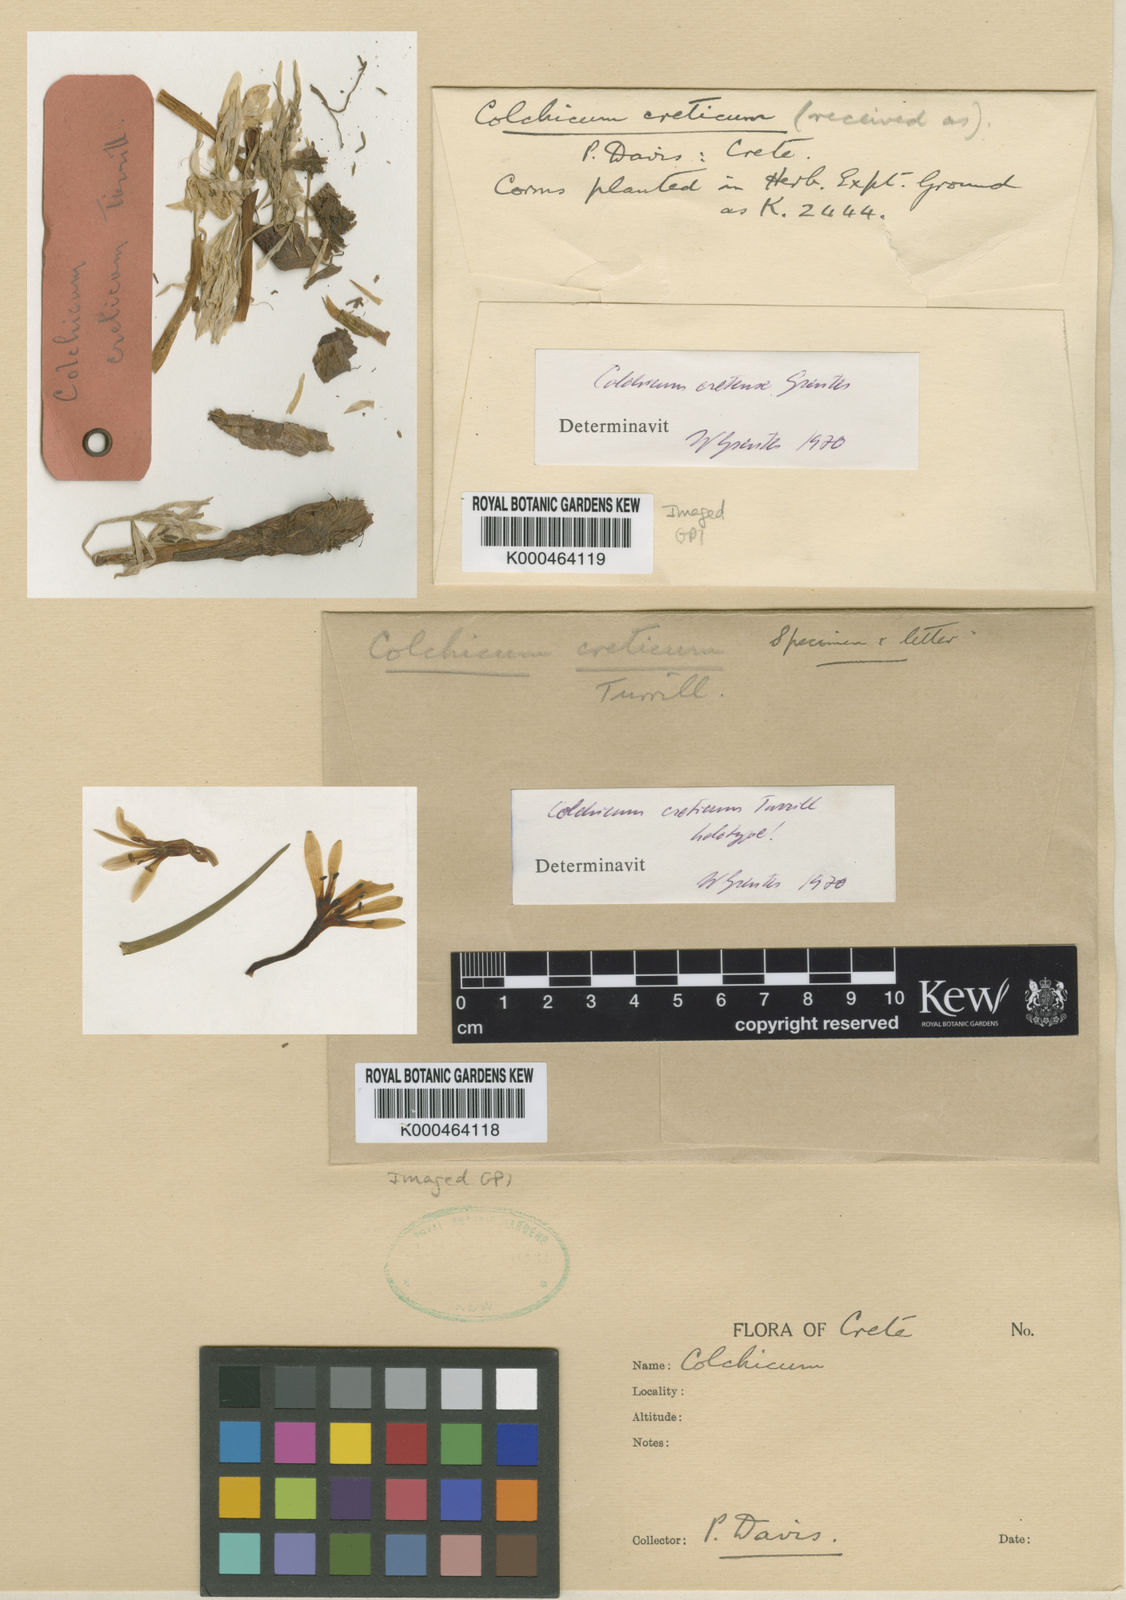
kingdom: Plantae
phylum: Tracheophyta
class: Liliopsida
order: Liliales
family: Colchicaceae
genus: Colchicum
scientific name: Colchicum cupanii
